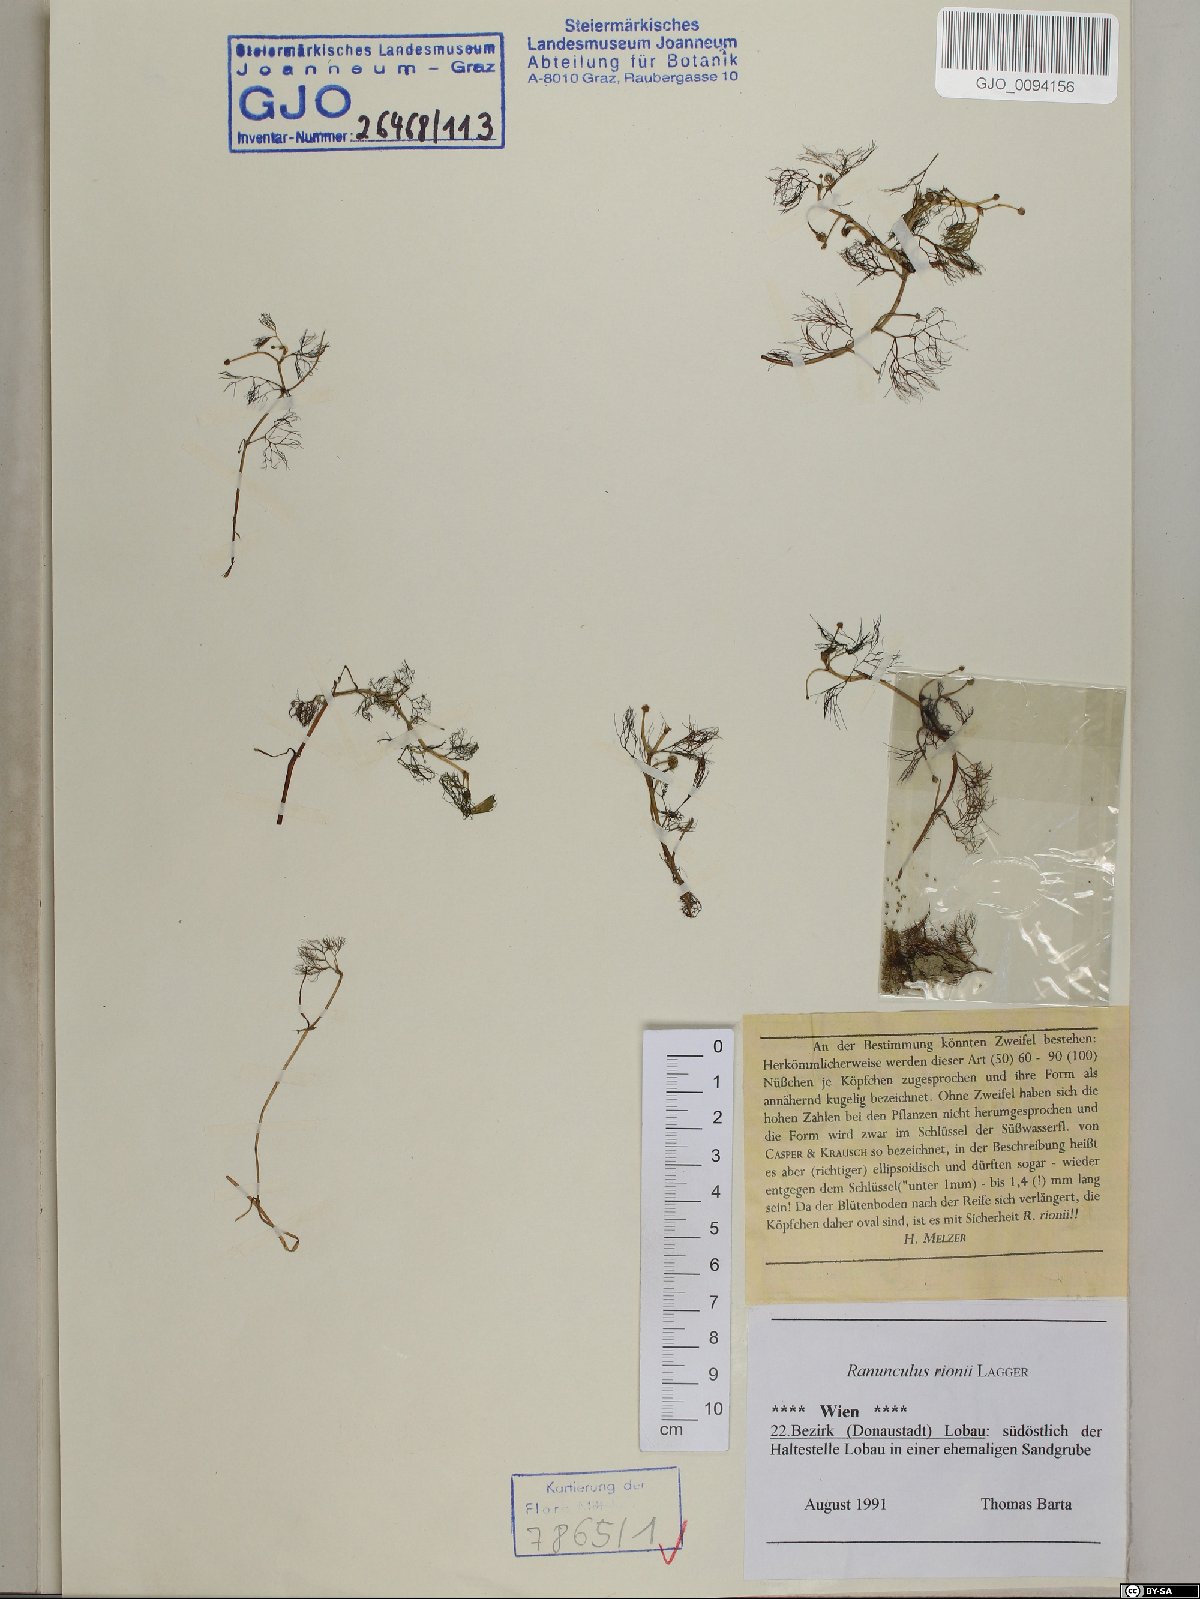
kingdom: Plantae
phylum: Tracheophyta
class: Magnoliopsida
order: Ranunculales
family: Ranunculaceae
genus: Ranunculus
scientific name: Ranunculus rionii
